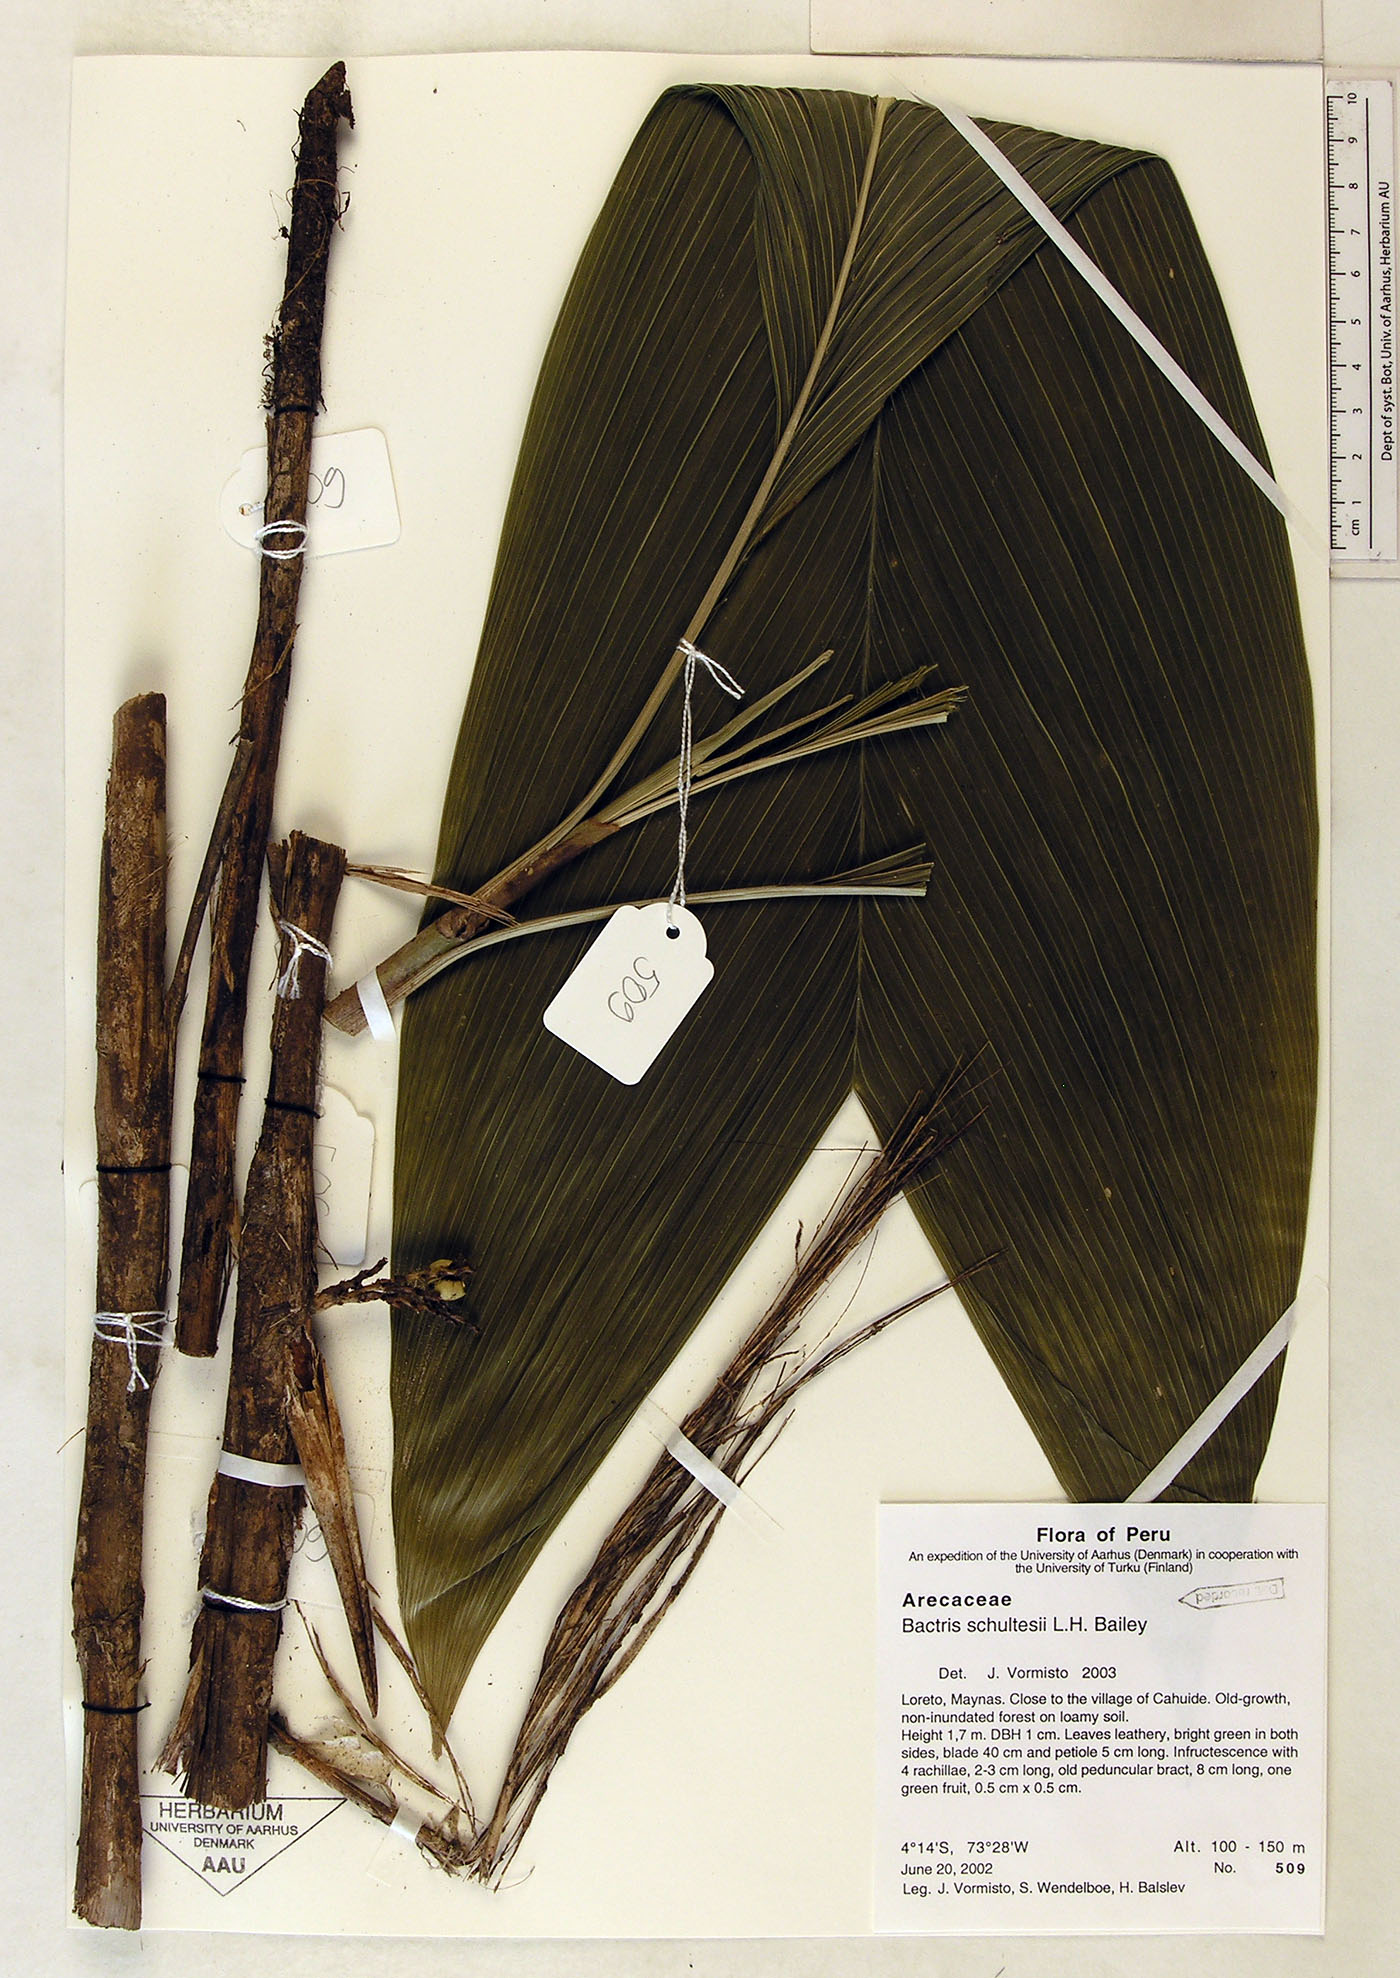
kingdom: Plantae
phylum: Tracheophyta
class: Liliopsida
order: Arecales
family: Arecaceae
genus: Bactris
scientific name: Bactris schultesii
